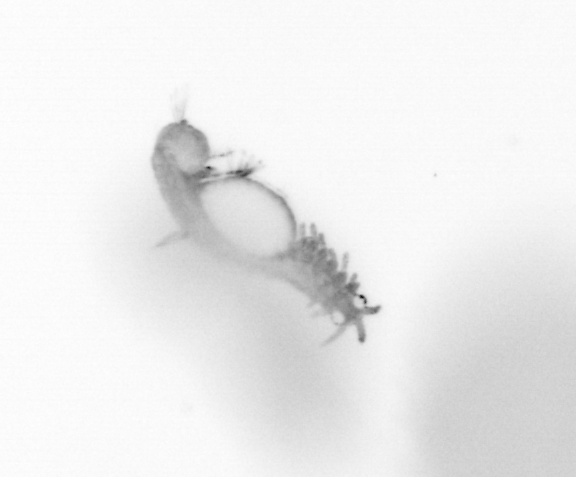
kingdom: Animalia
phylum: Annelida
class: Polychaeta
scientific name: Polychaeta
